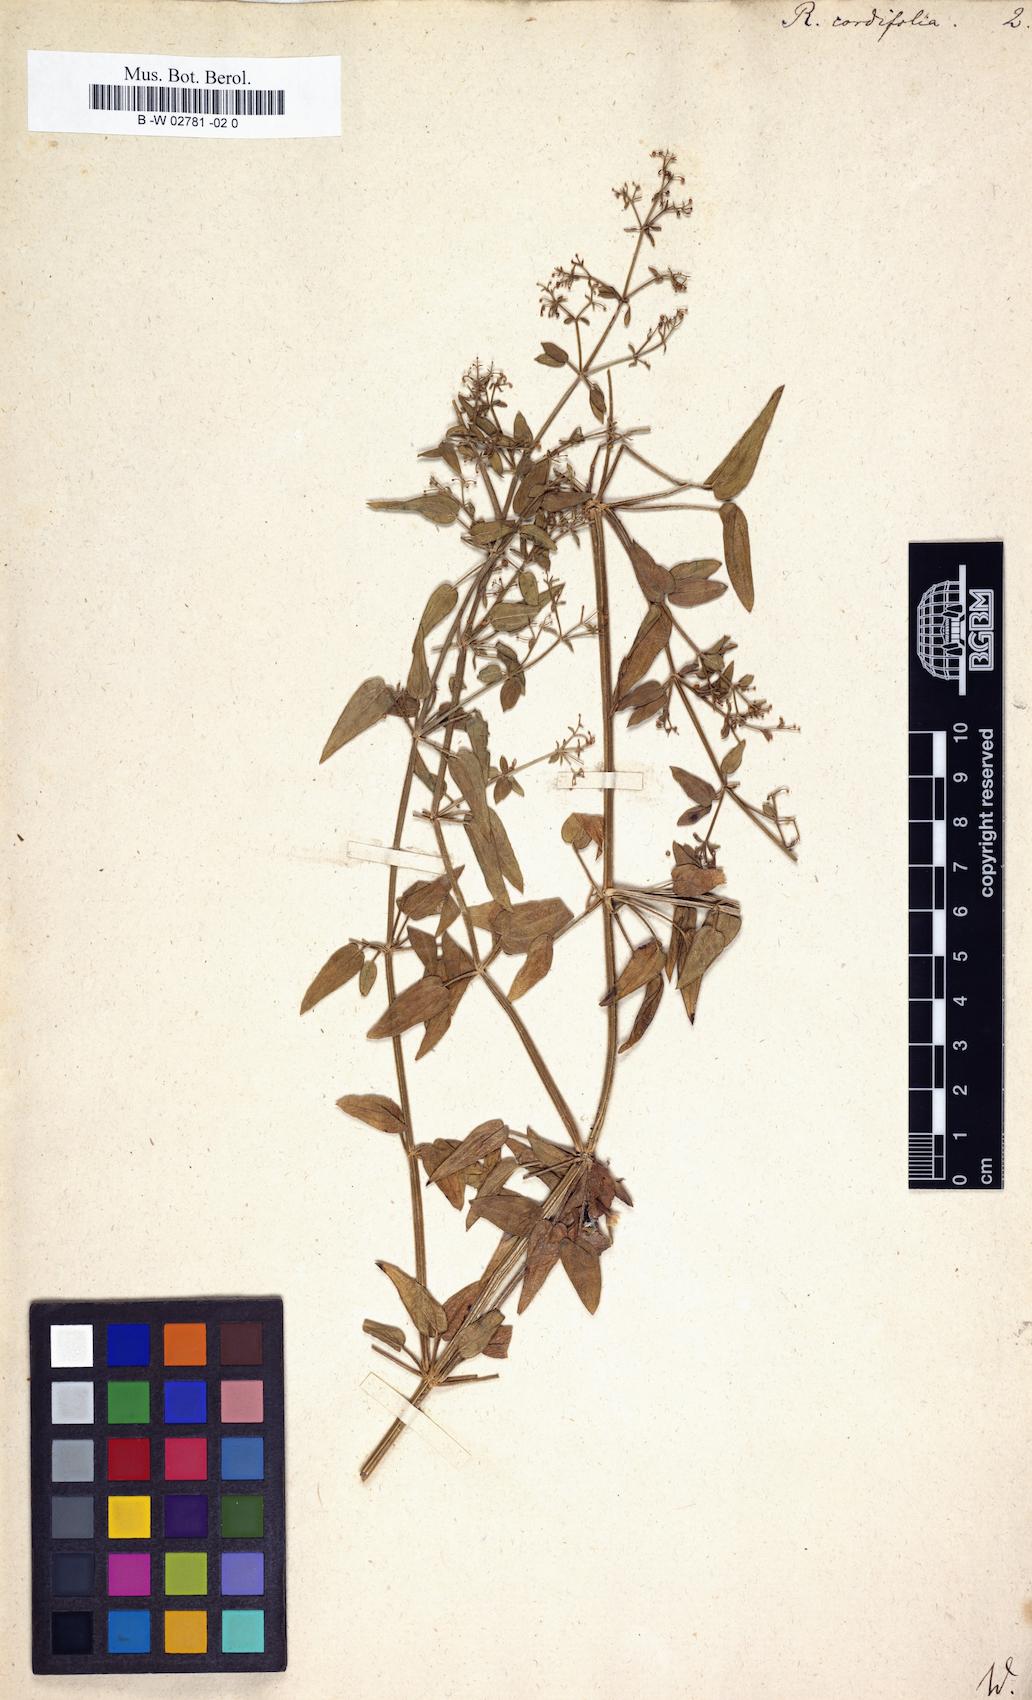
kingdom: Plantae
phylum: Tracheophyta
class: Magnoliopsida
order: Gentianales
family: Rubiaceae
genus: Rubia
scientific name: Rubia cordifolia
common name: Indian madder
